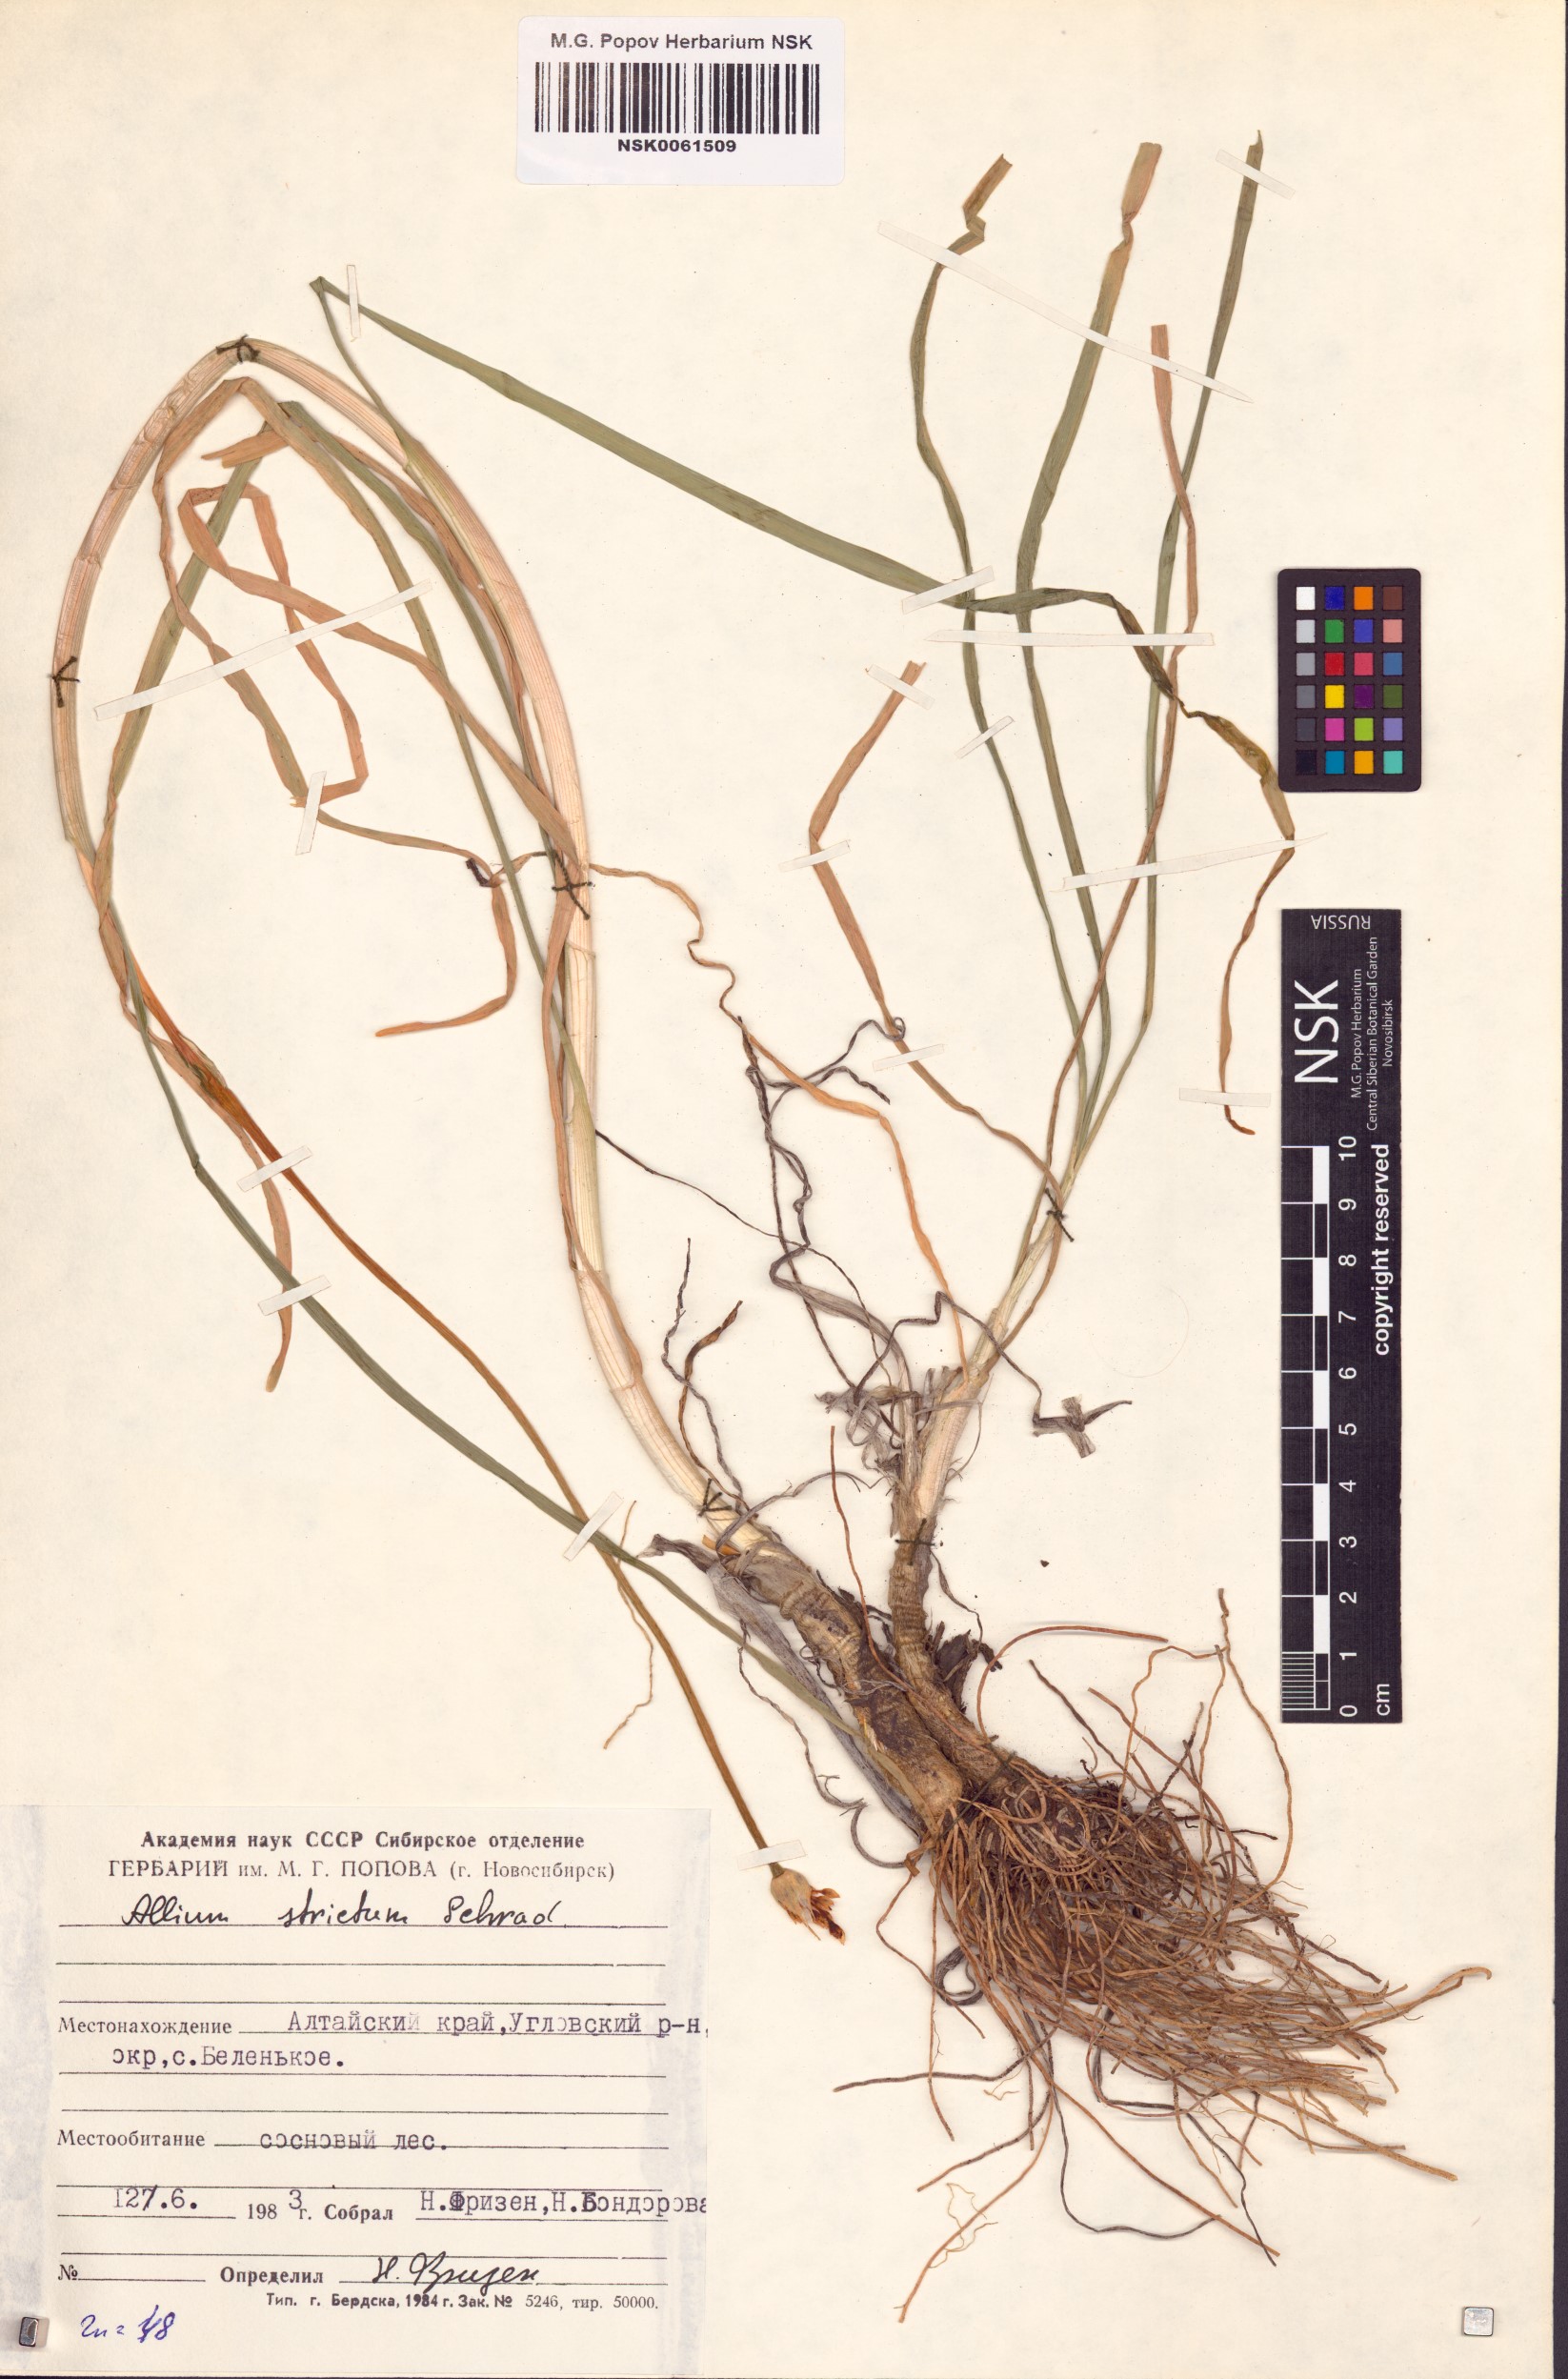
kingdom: Plantae
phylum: Tracheophyta
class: Liliopsida
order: Asparagales
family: Amaryllidaceae
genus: Allium
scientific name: Allium strictum
